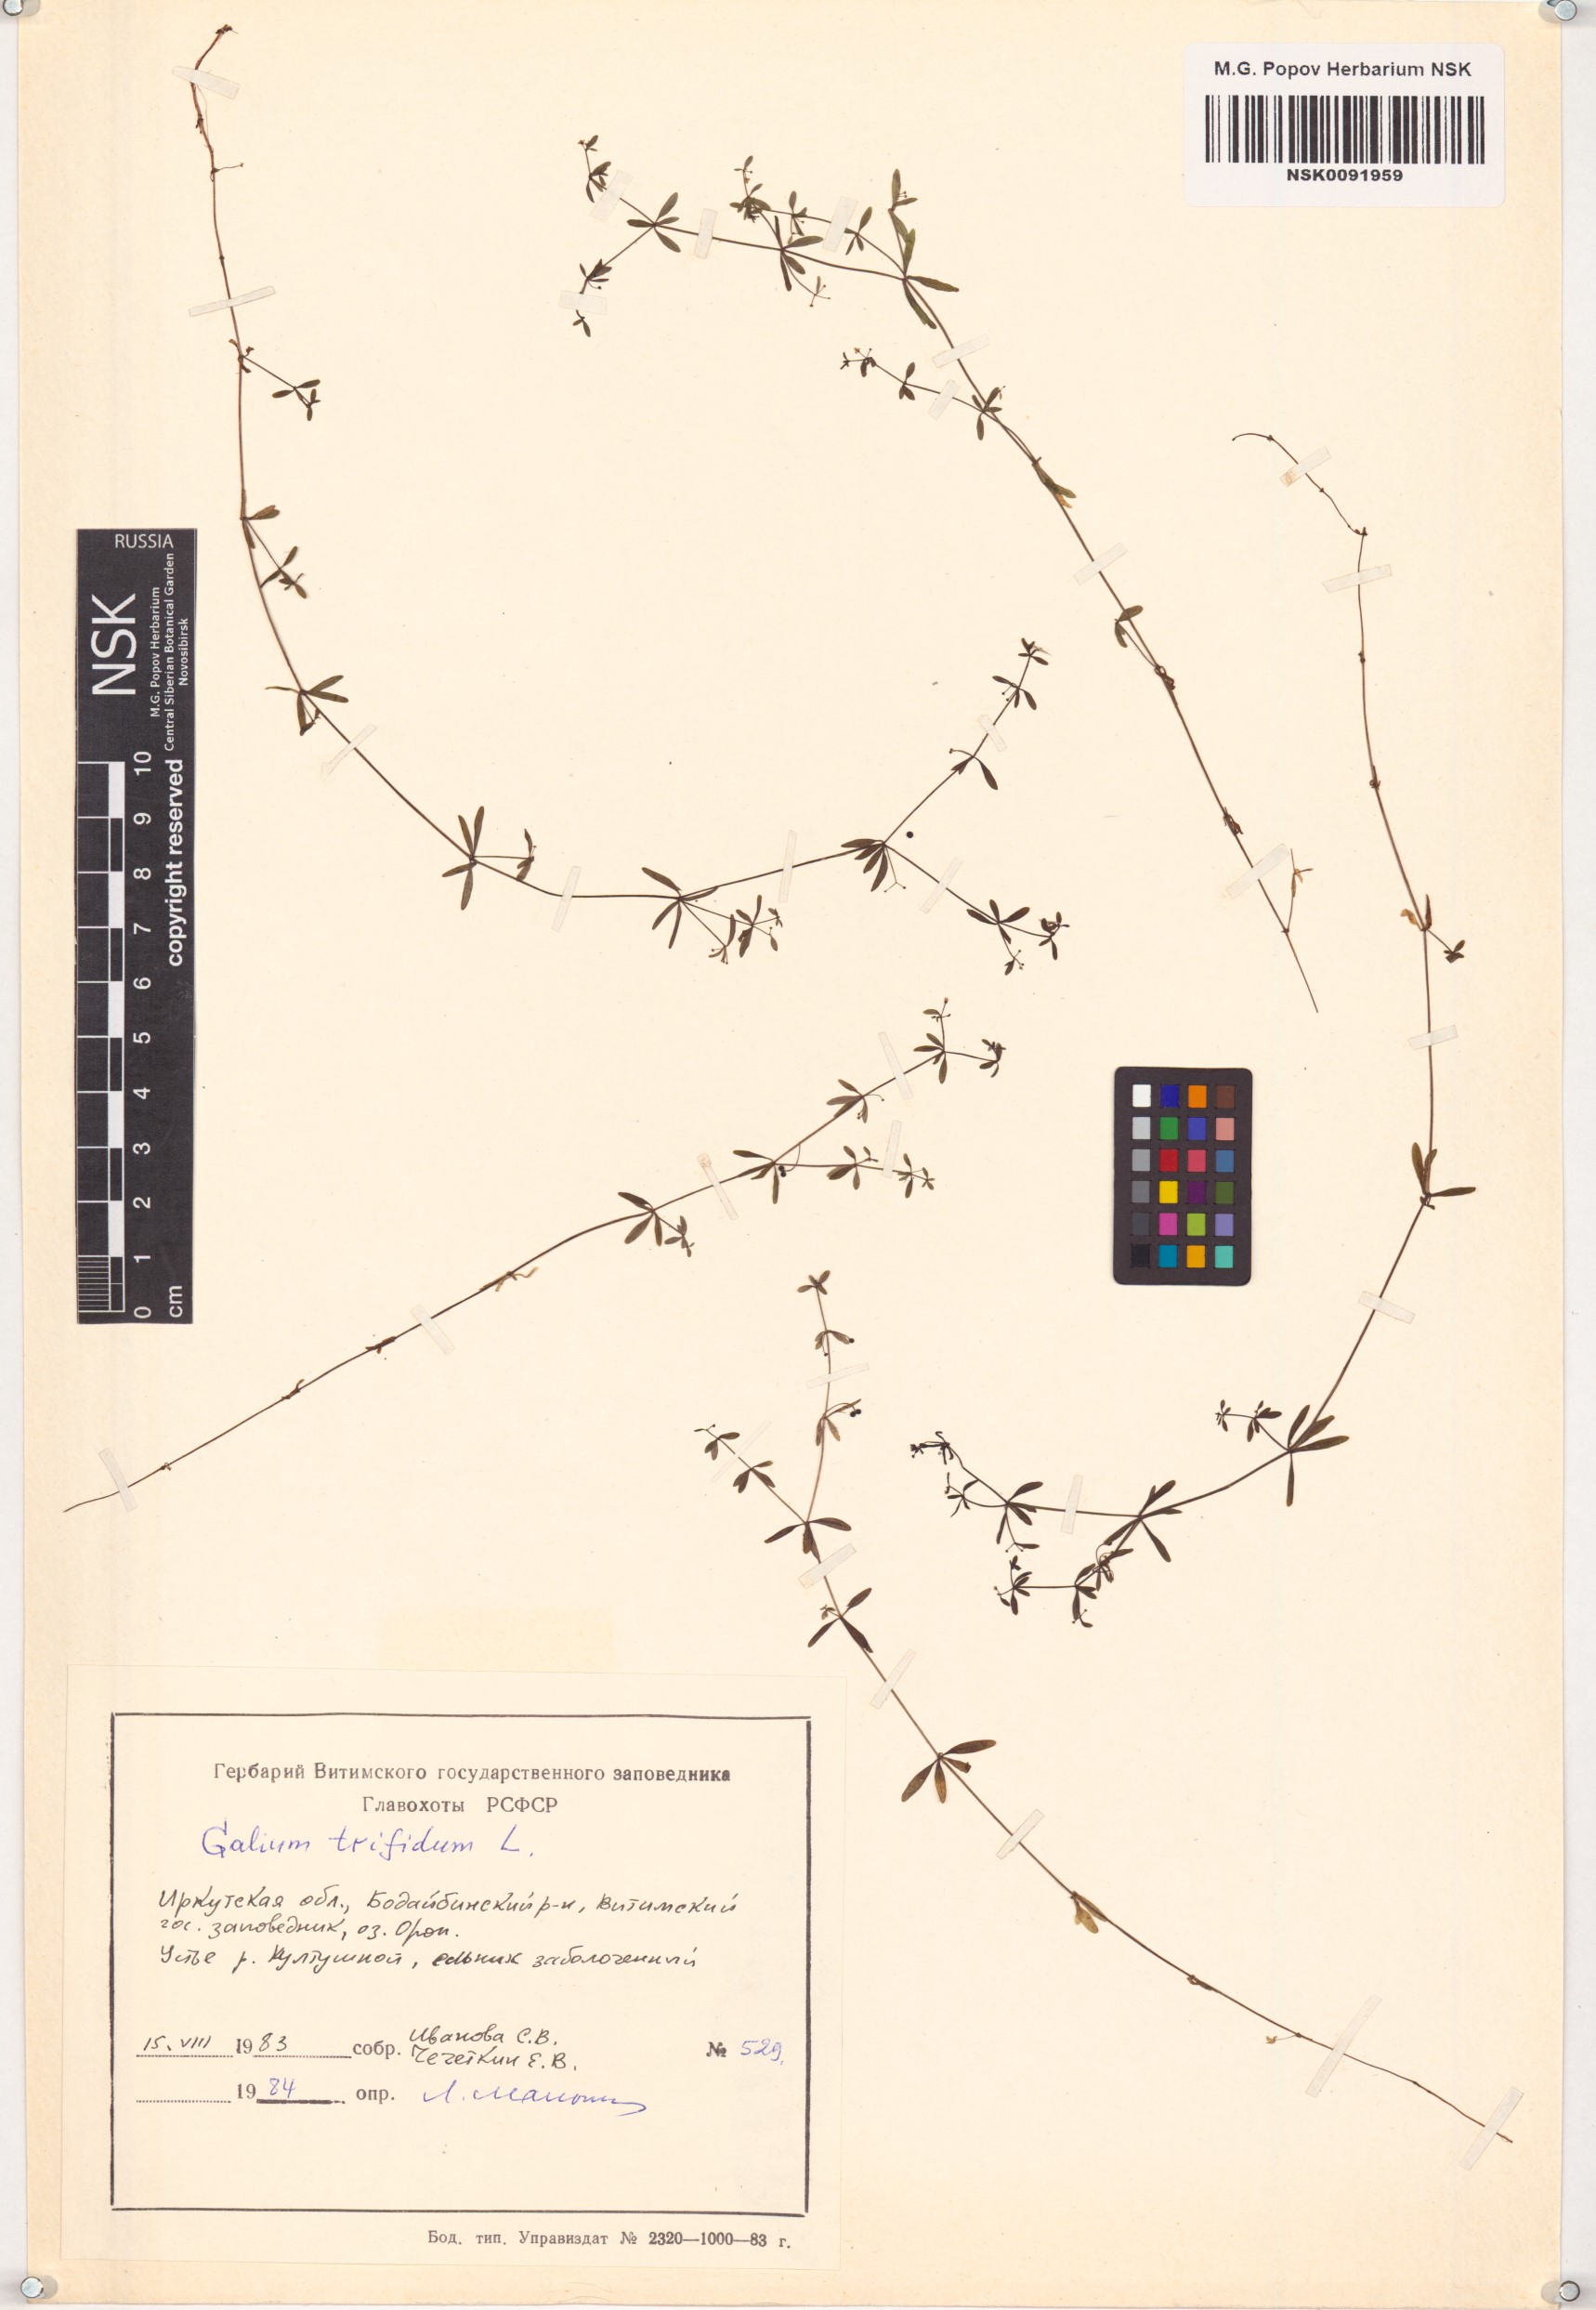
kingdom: Plantae
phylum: Tracheophyta
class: Magnoliopsida
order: Gentianales
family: Rubiaceae
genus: Galium
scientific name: Galium trifidum
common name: Small bedstraw
